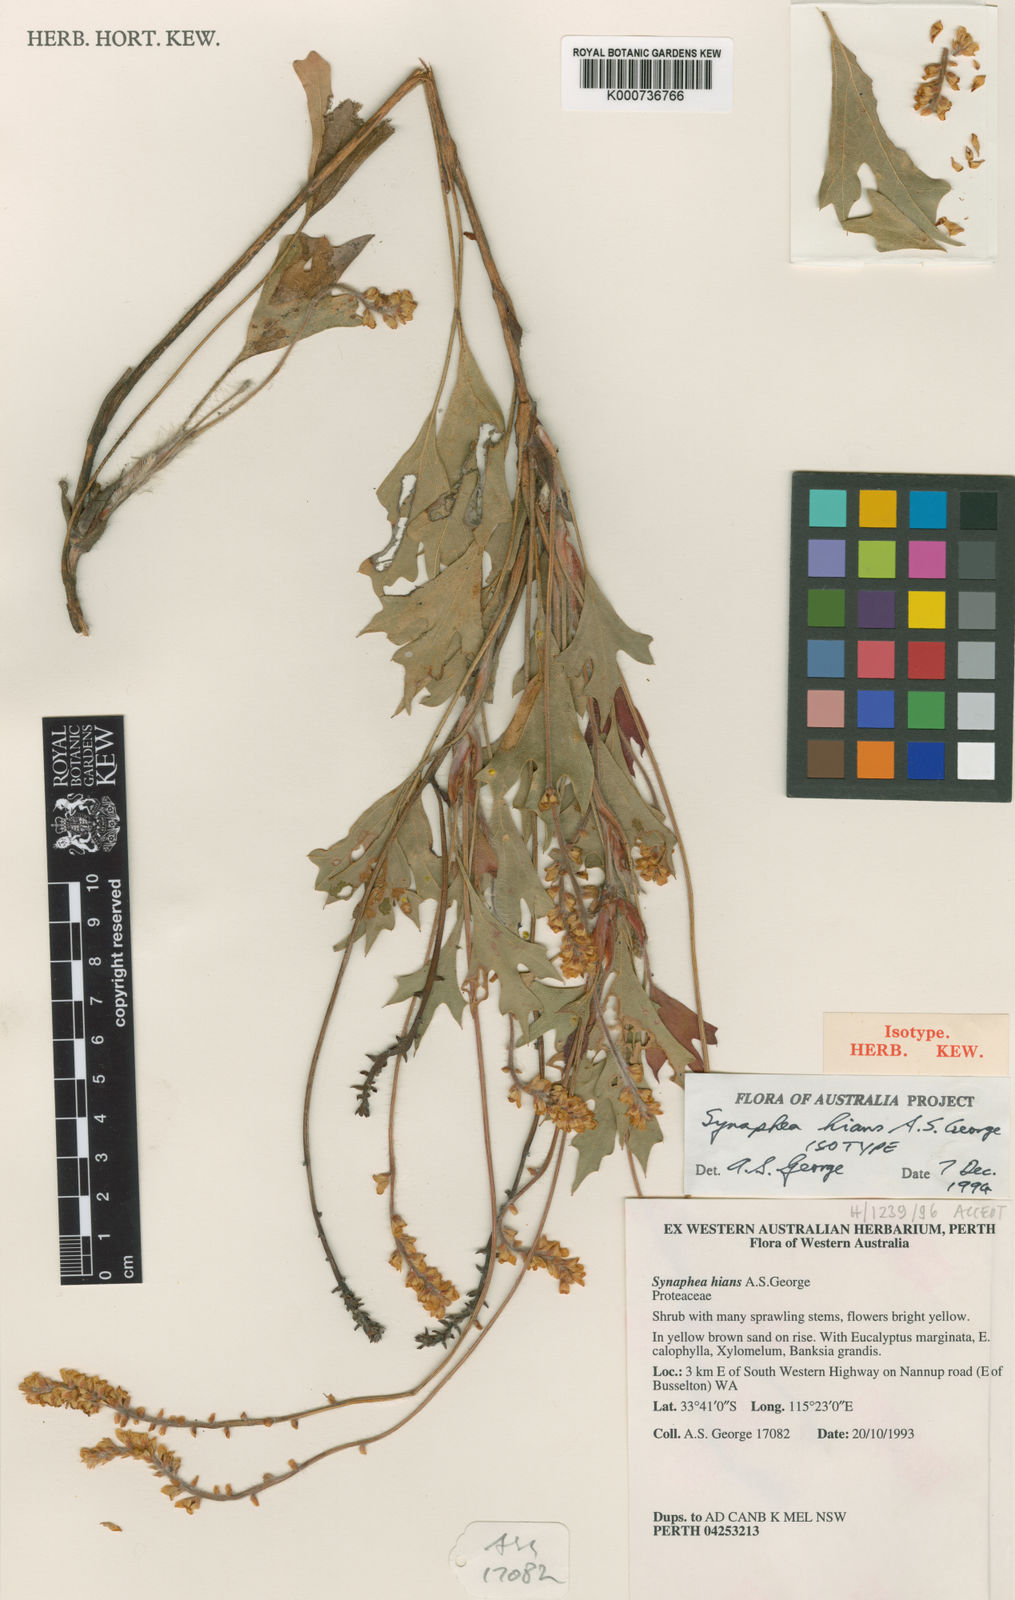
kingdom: Plantae
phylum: Tracheophyta
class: Magnoliopsida
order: Proteales
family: Proteaceae
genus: Synaphea
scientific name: Synaphea hians
